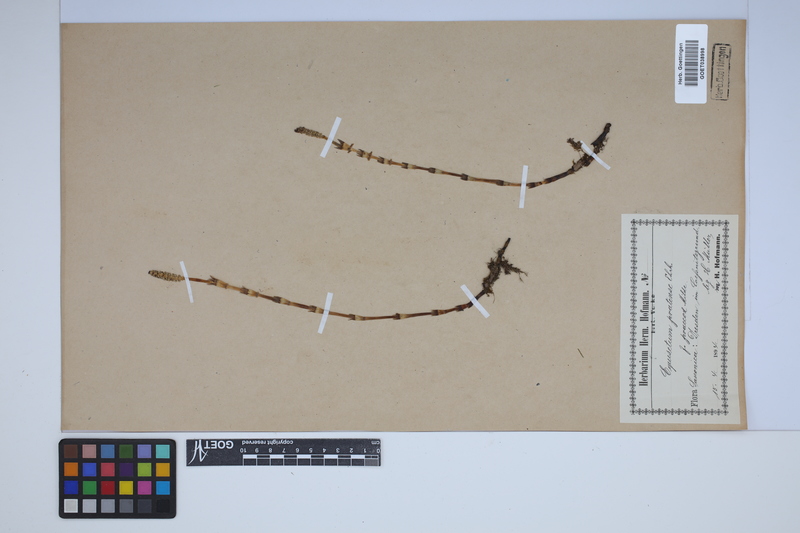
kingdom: Plantae
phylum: Tracheophyta
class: Polypodiopsida
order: Equisetales
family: Equisetaceae
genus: Equisetum
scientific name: Equisetum pratense
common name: Meadow horsetail
